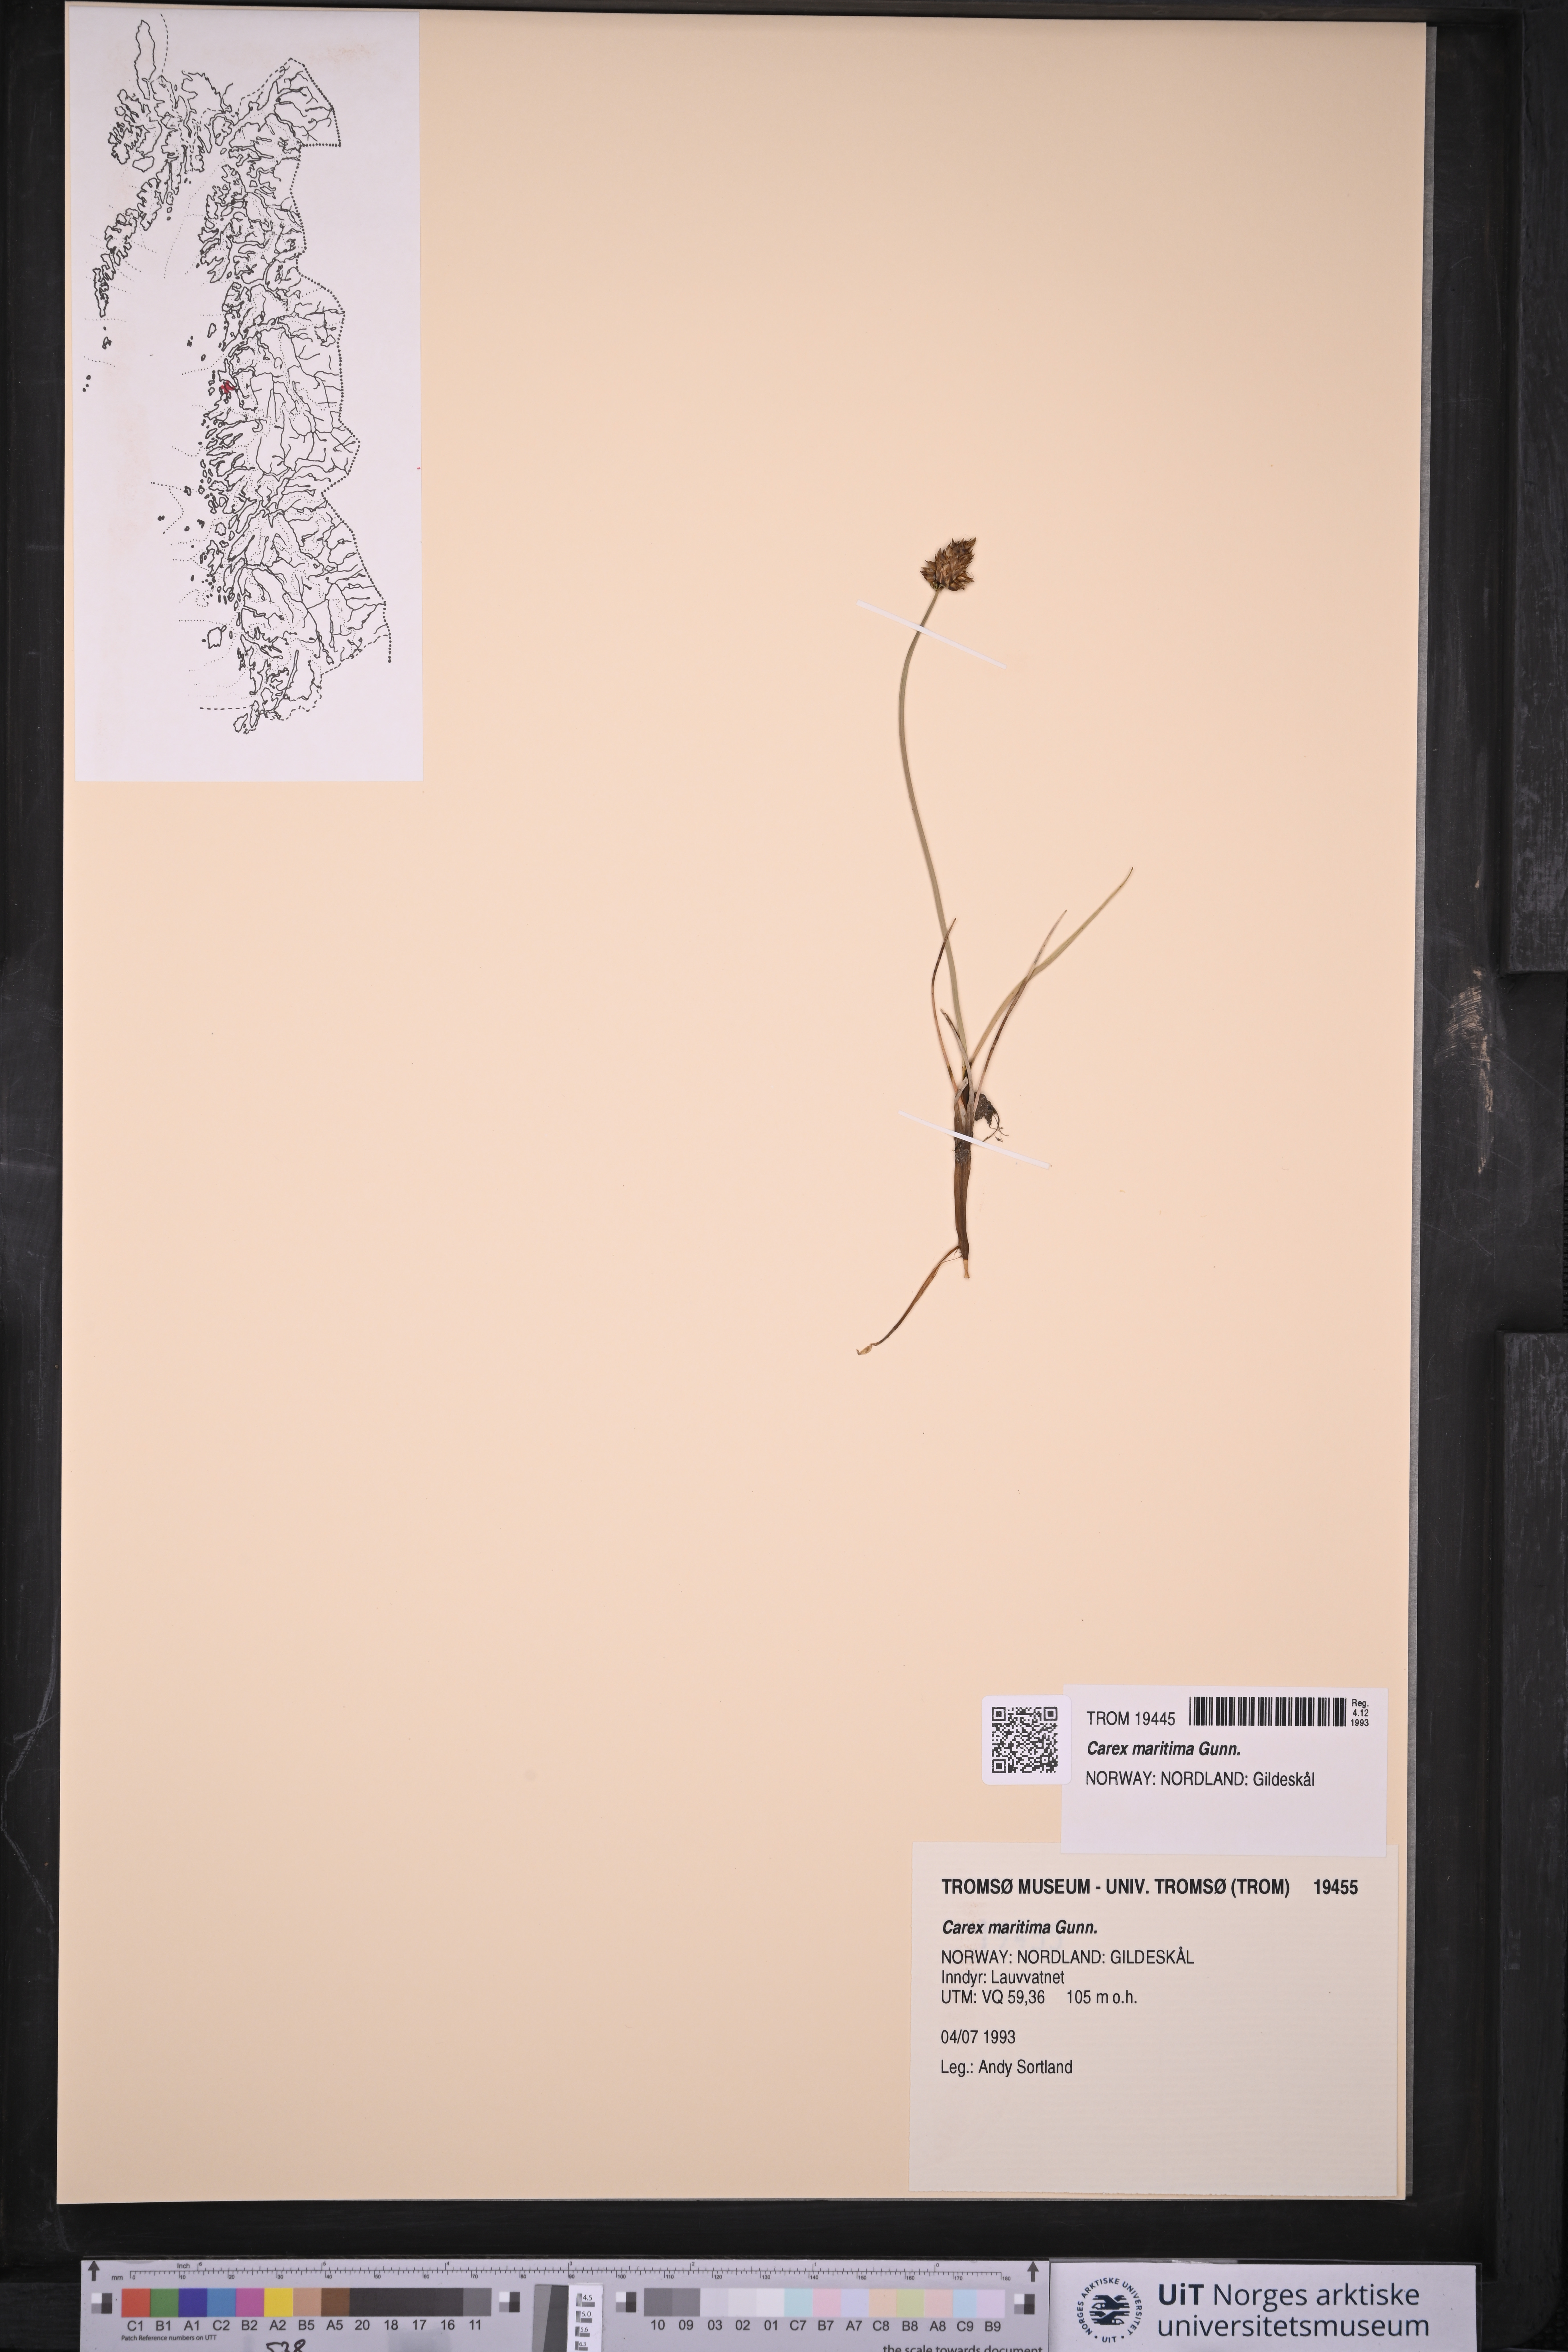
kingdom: Plantae
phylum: Tracheophyta
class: Liliopsida
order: Poales
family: Cyperaceae
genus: Carex
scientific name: Carex maritima
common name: Curved sedge
